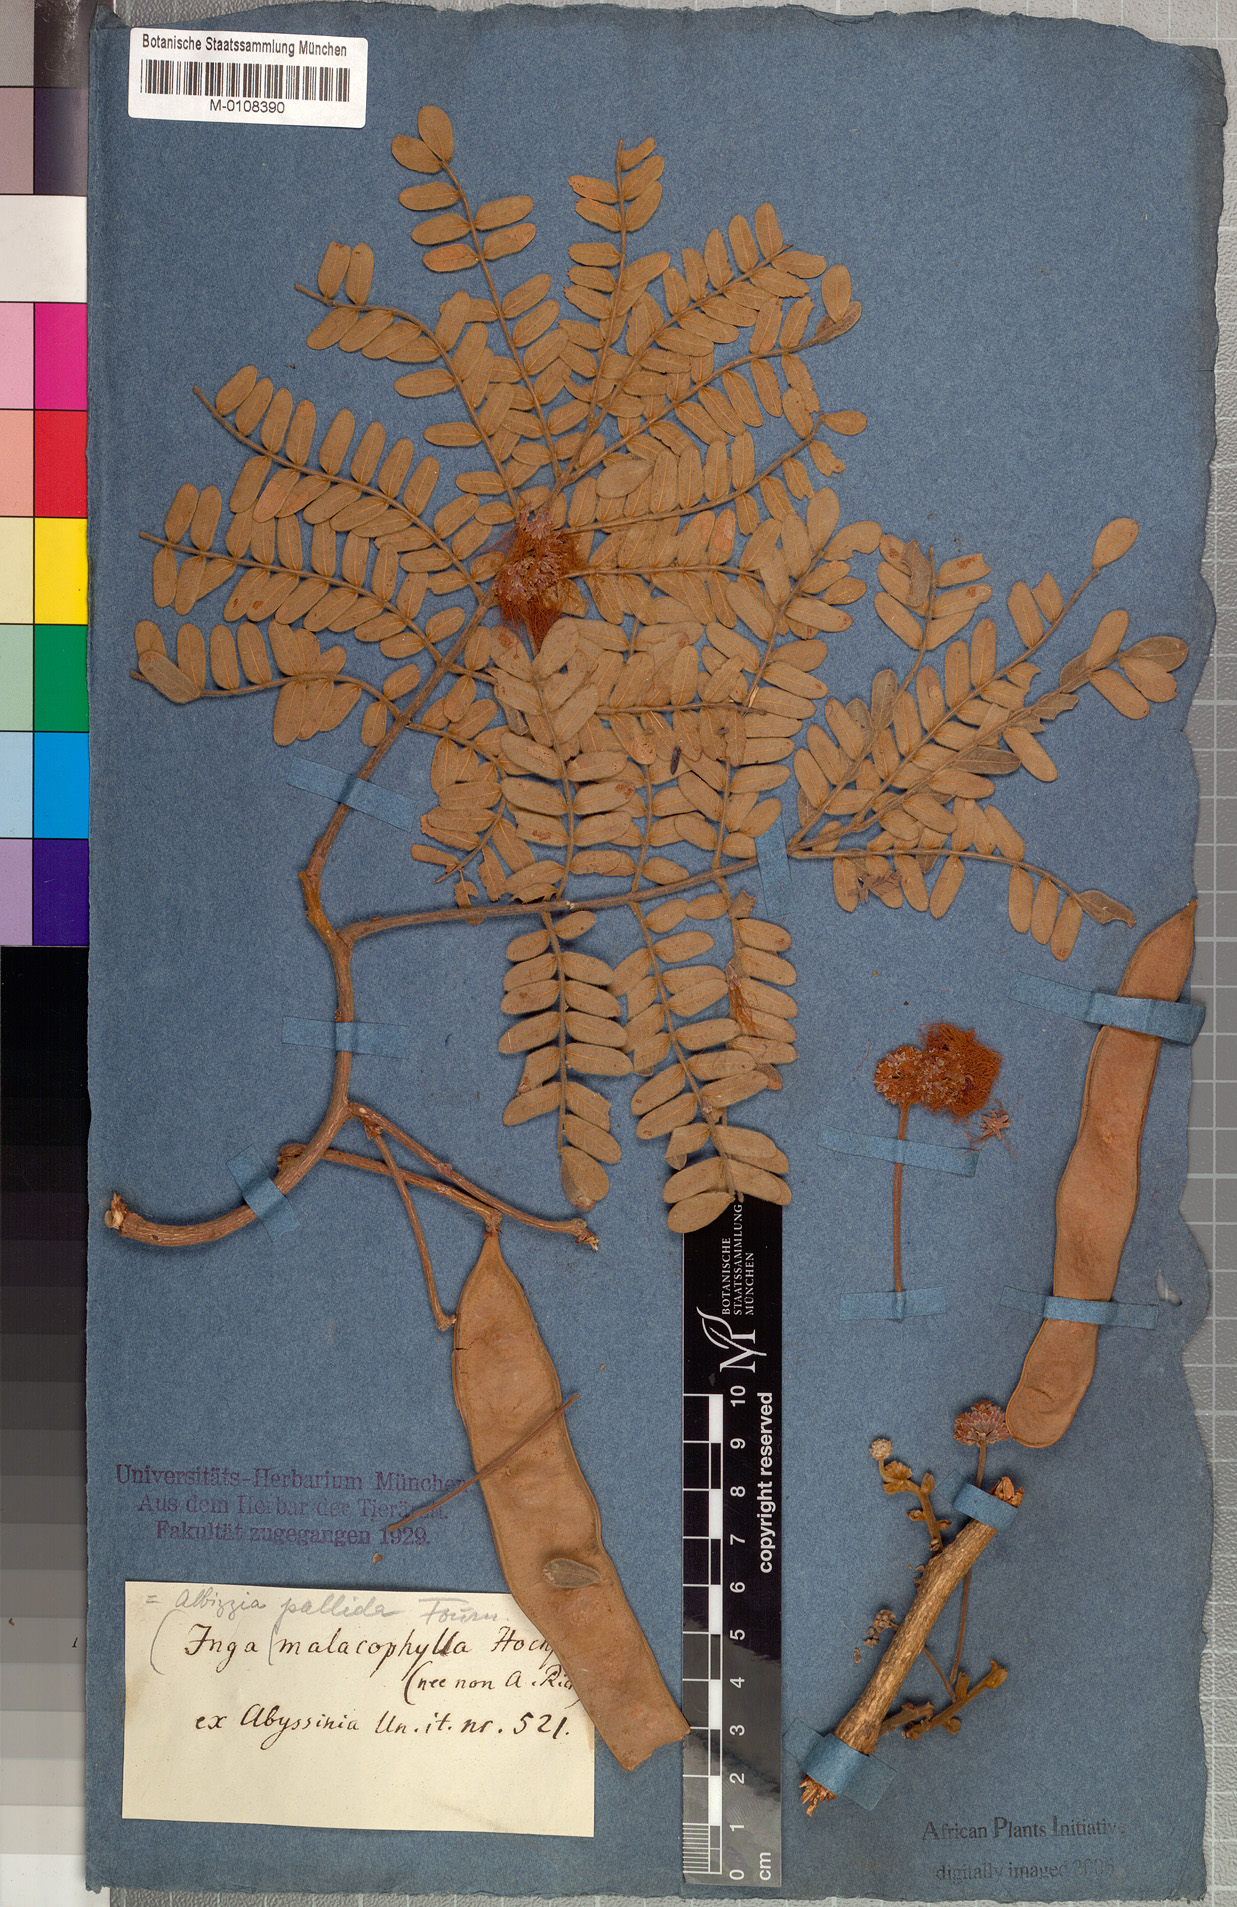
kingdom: Plantae
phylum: Tracheophyta
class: Magnoliopsida
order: Fabales
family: Fabaceae
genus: Albizia
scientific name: Albizia malacophylla
